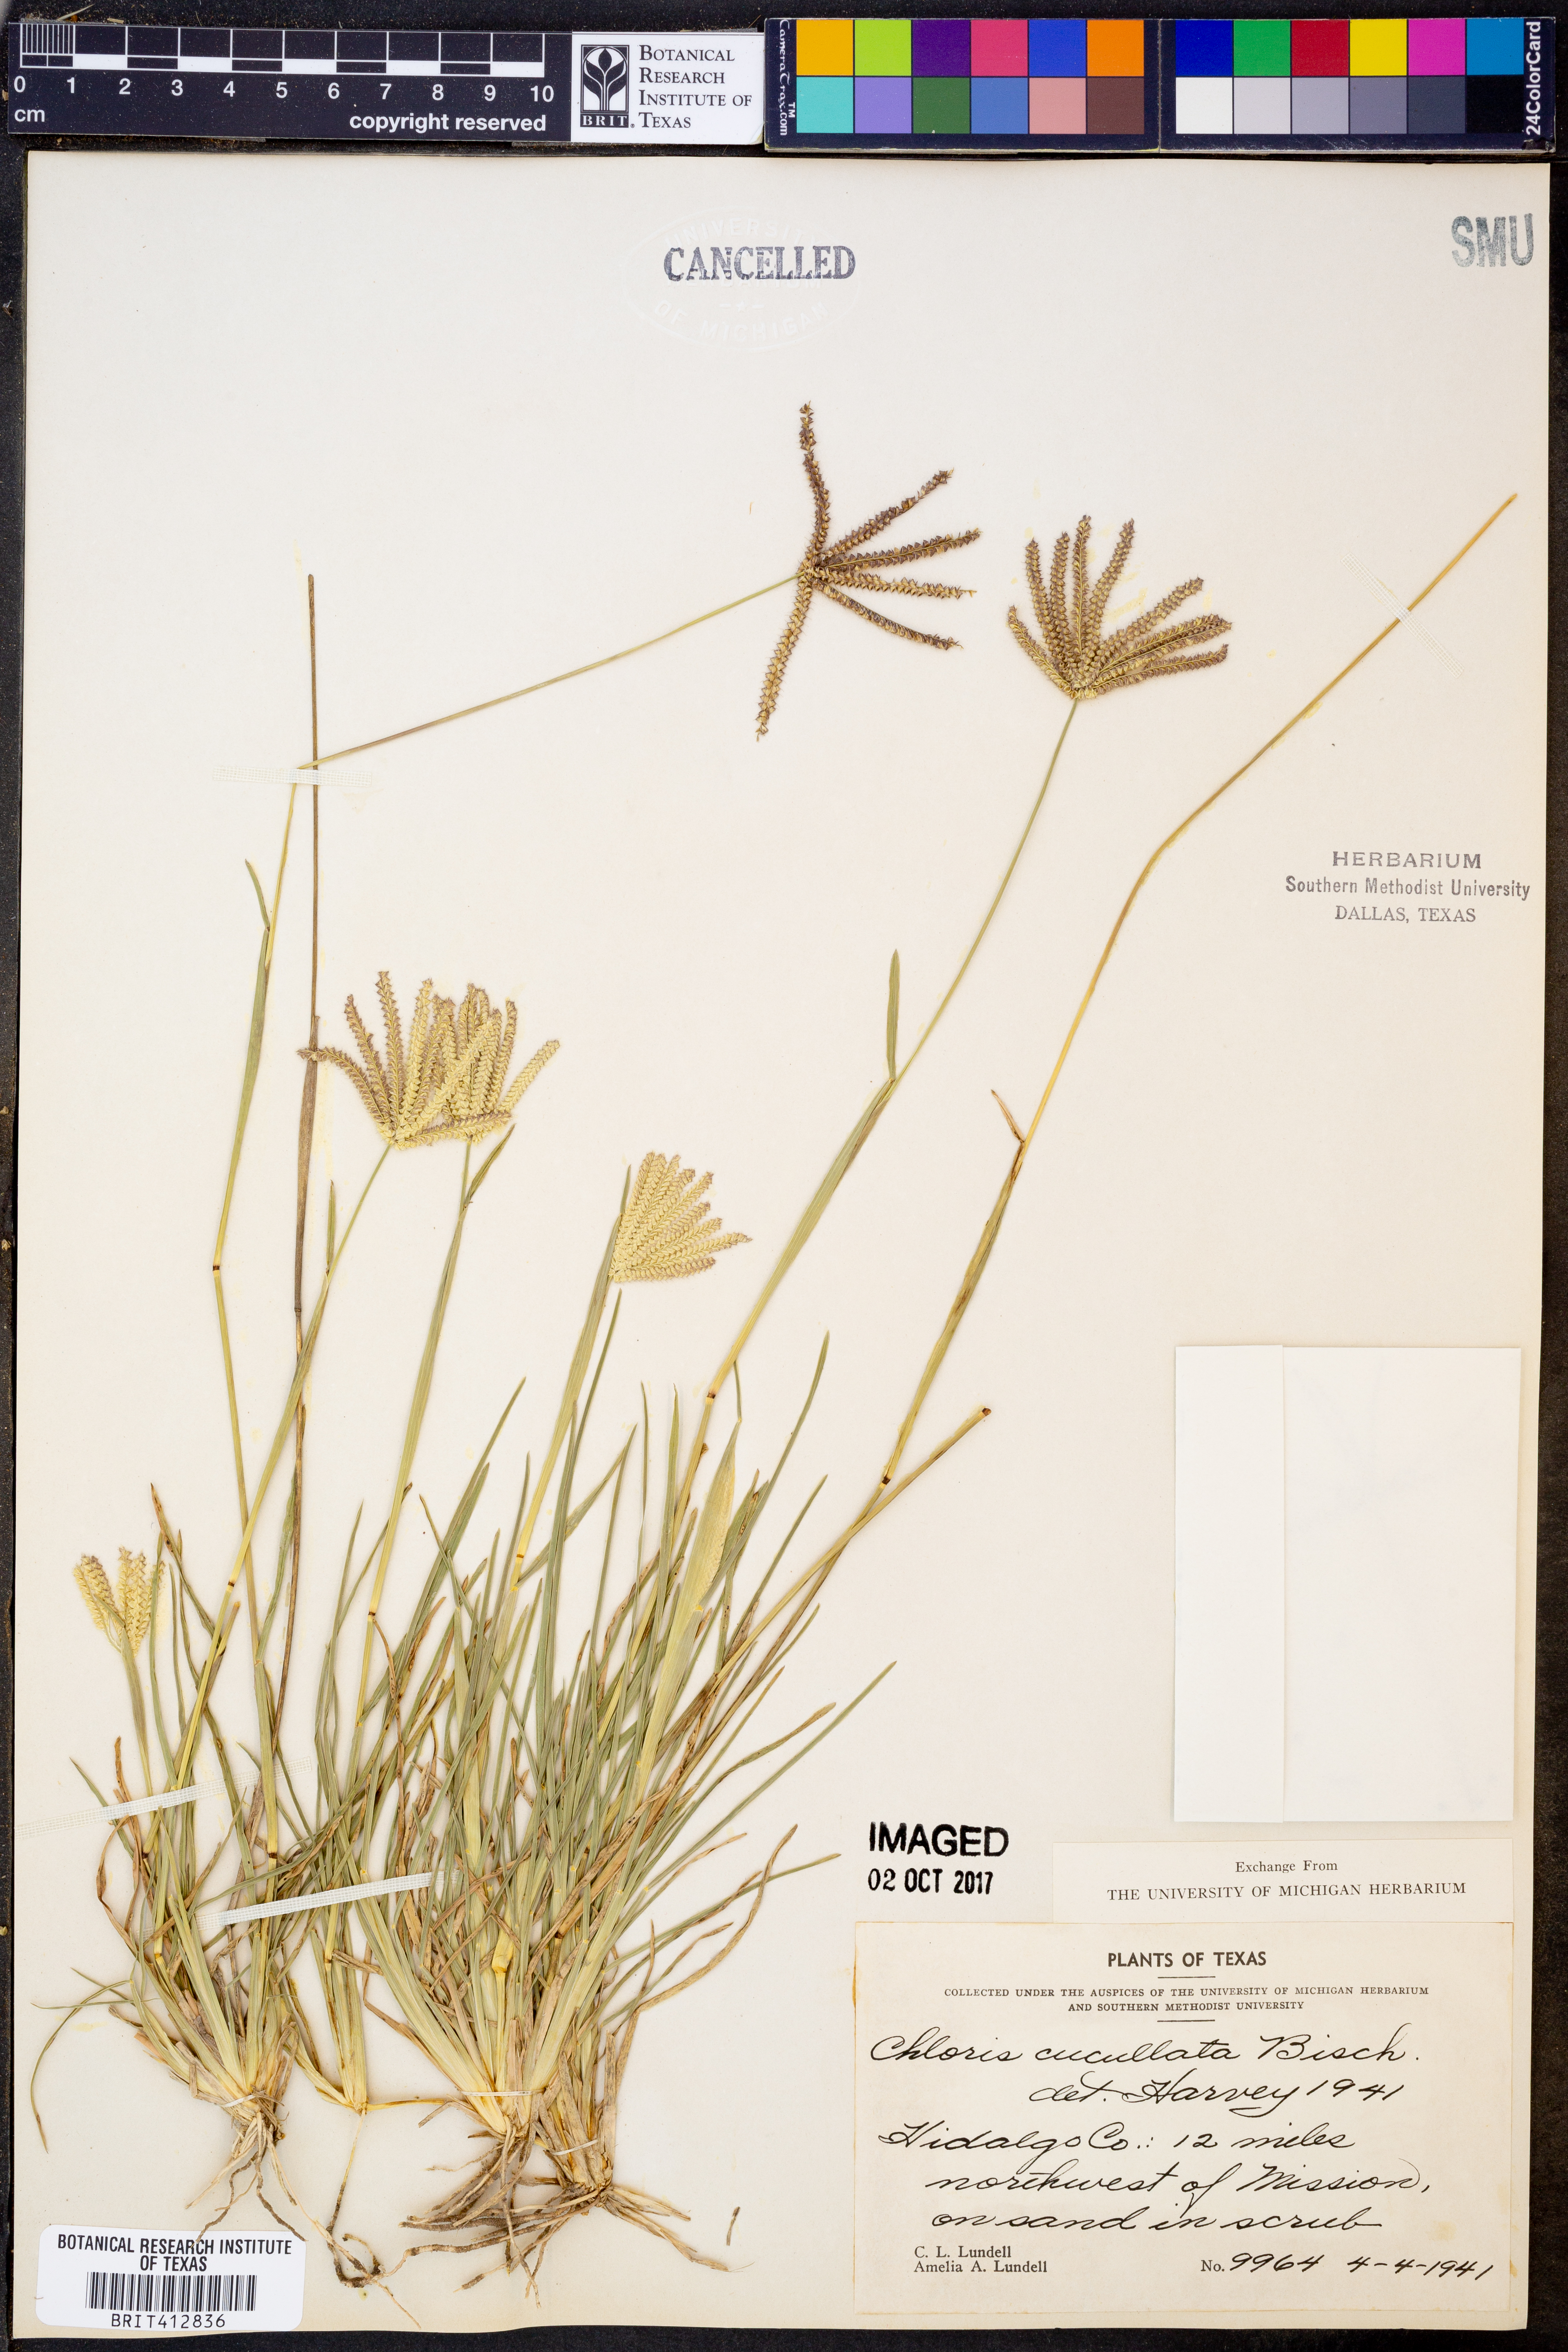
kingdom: Plantae
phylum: Tracheophyta
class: Liliopsida
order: Poales
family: Poaceae
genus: Chloris
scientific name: Chloris cucullata
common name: Hooded windmill grass
